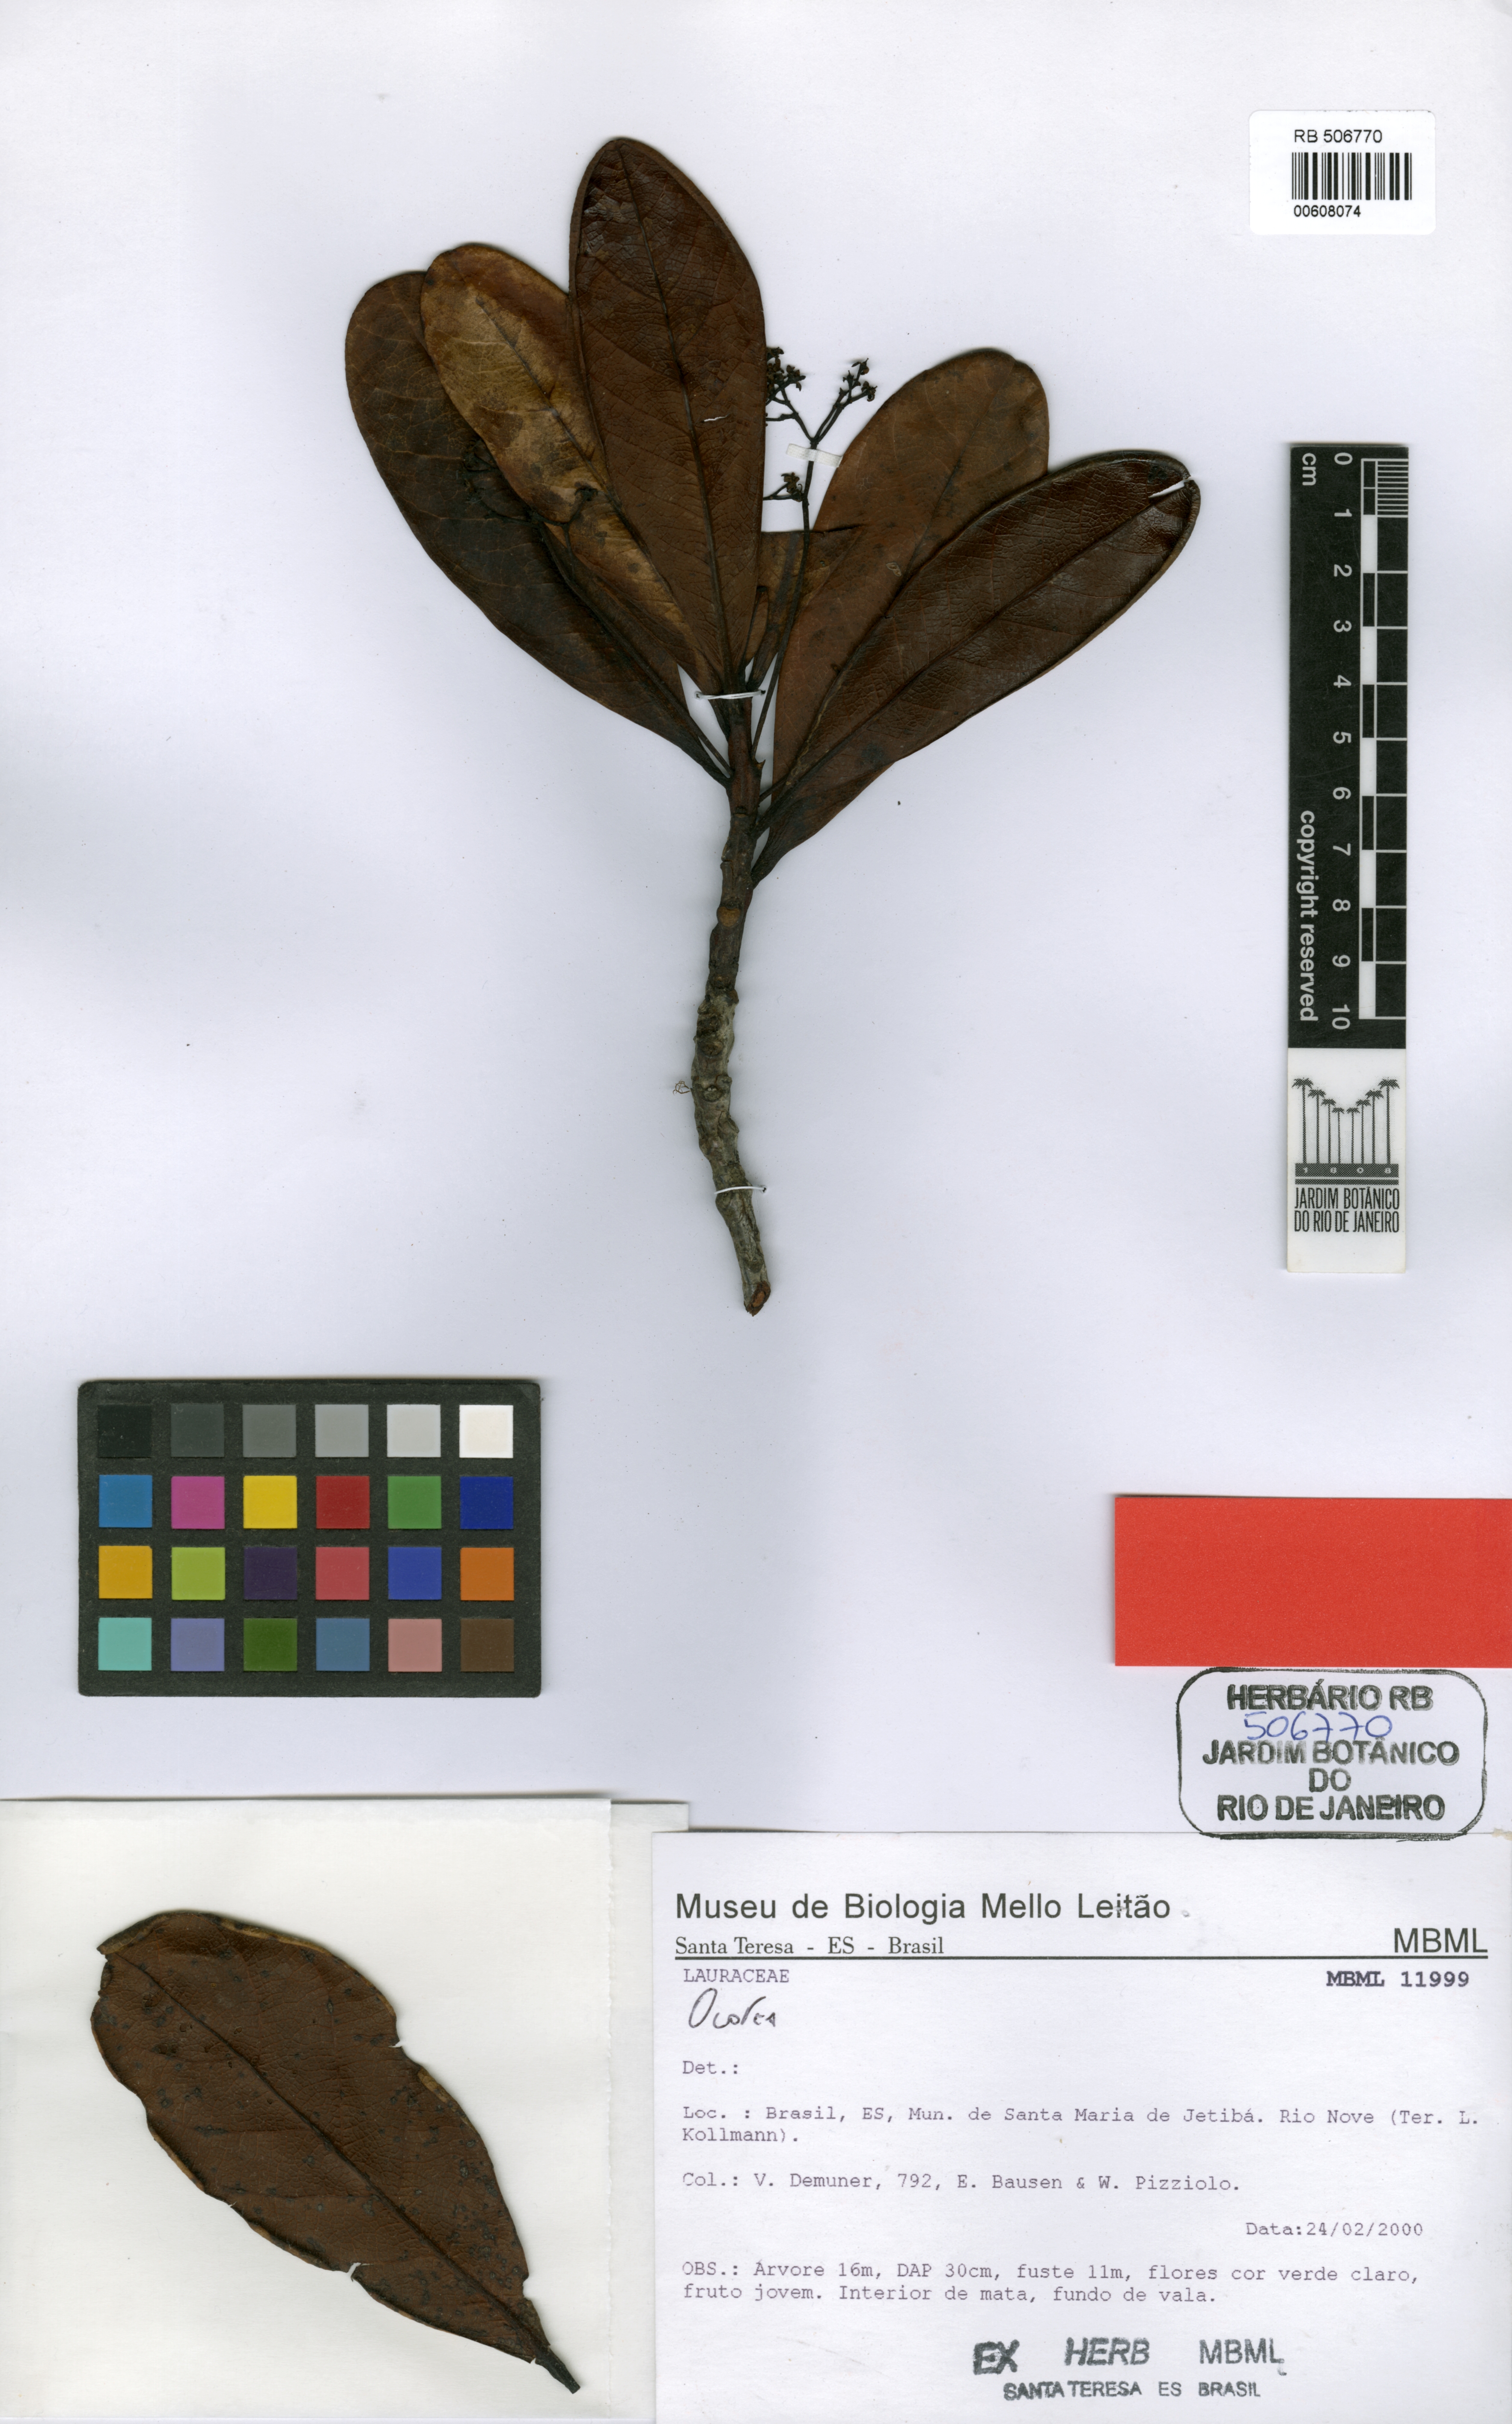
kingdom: Plantae
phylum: Tracheophyta
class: Magnoliopsida
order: Laurales
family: Lauraceae
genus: Ocotea
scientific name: Ocotea revolutifolia
